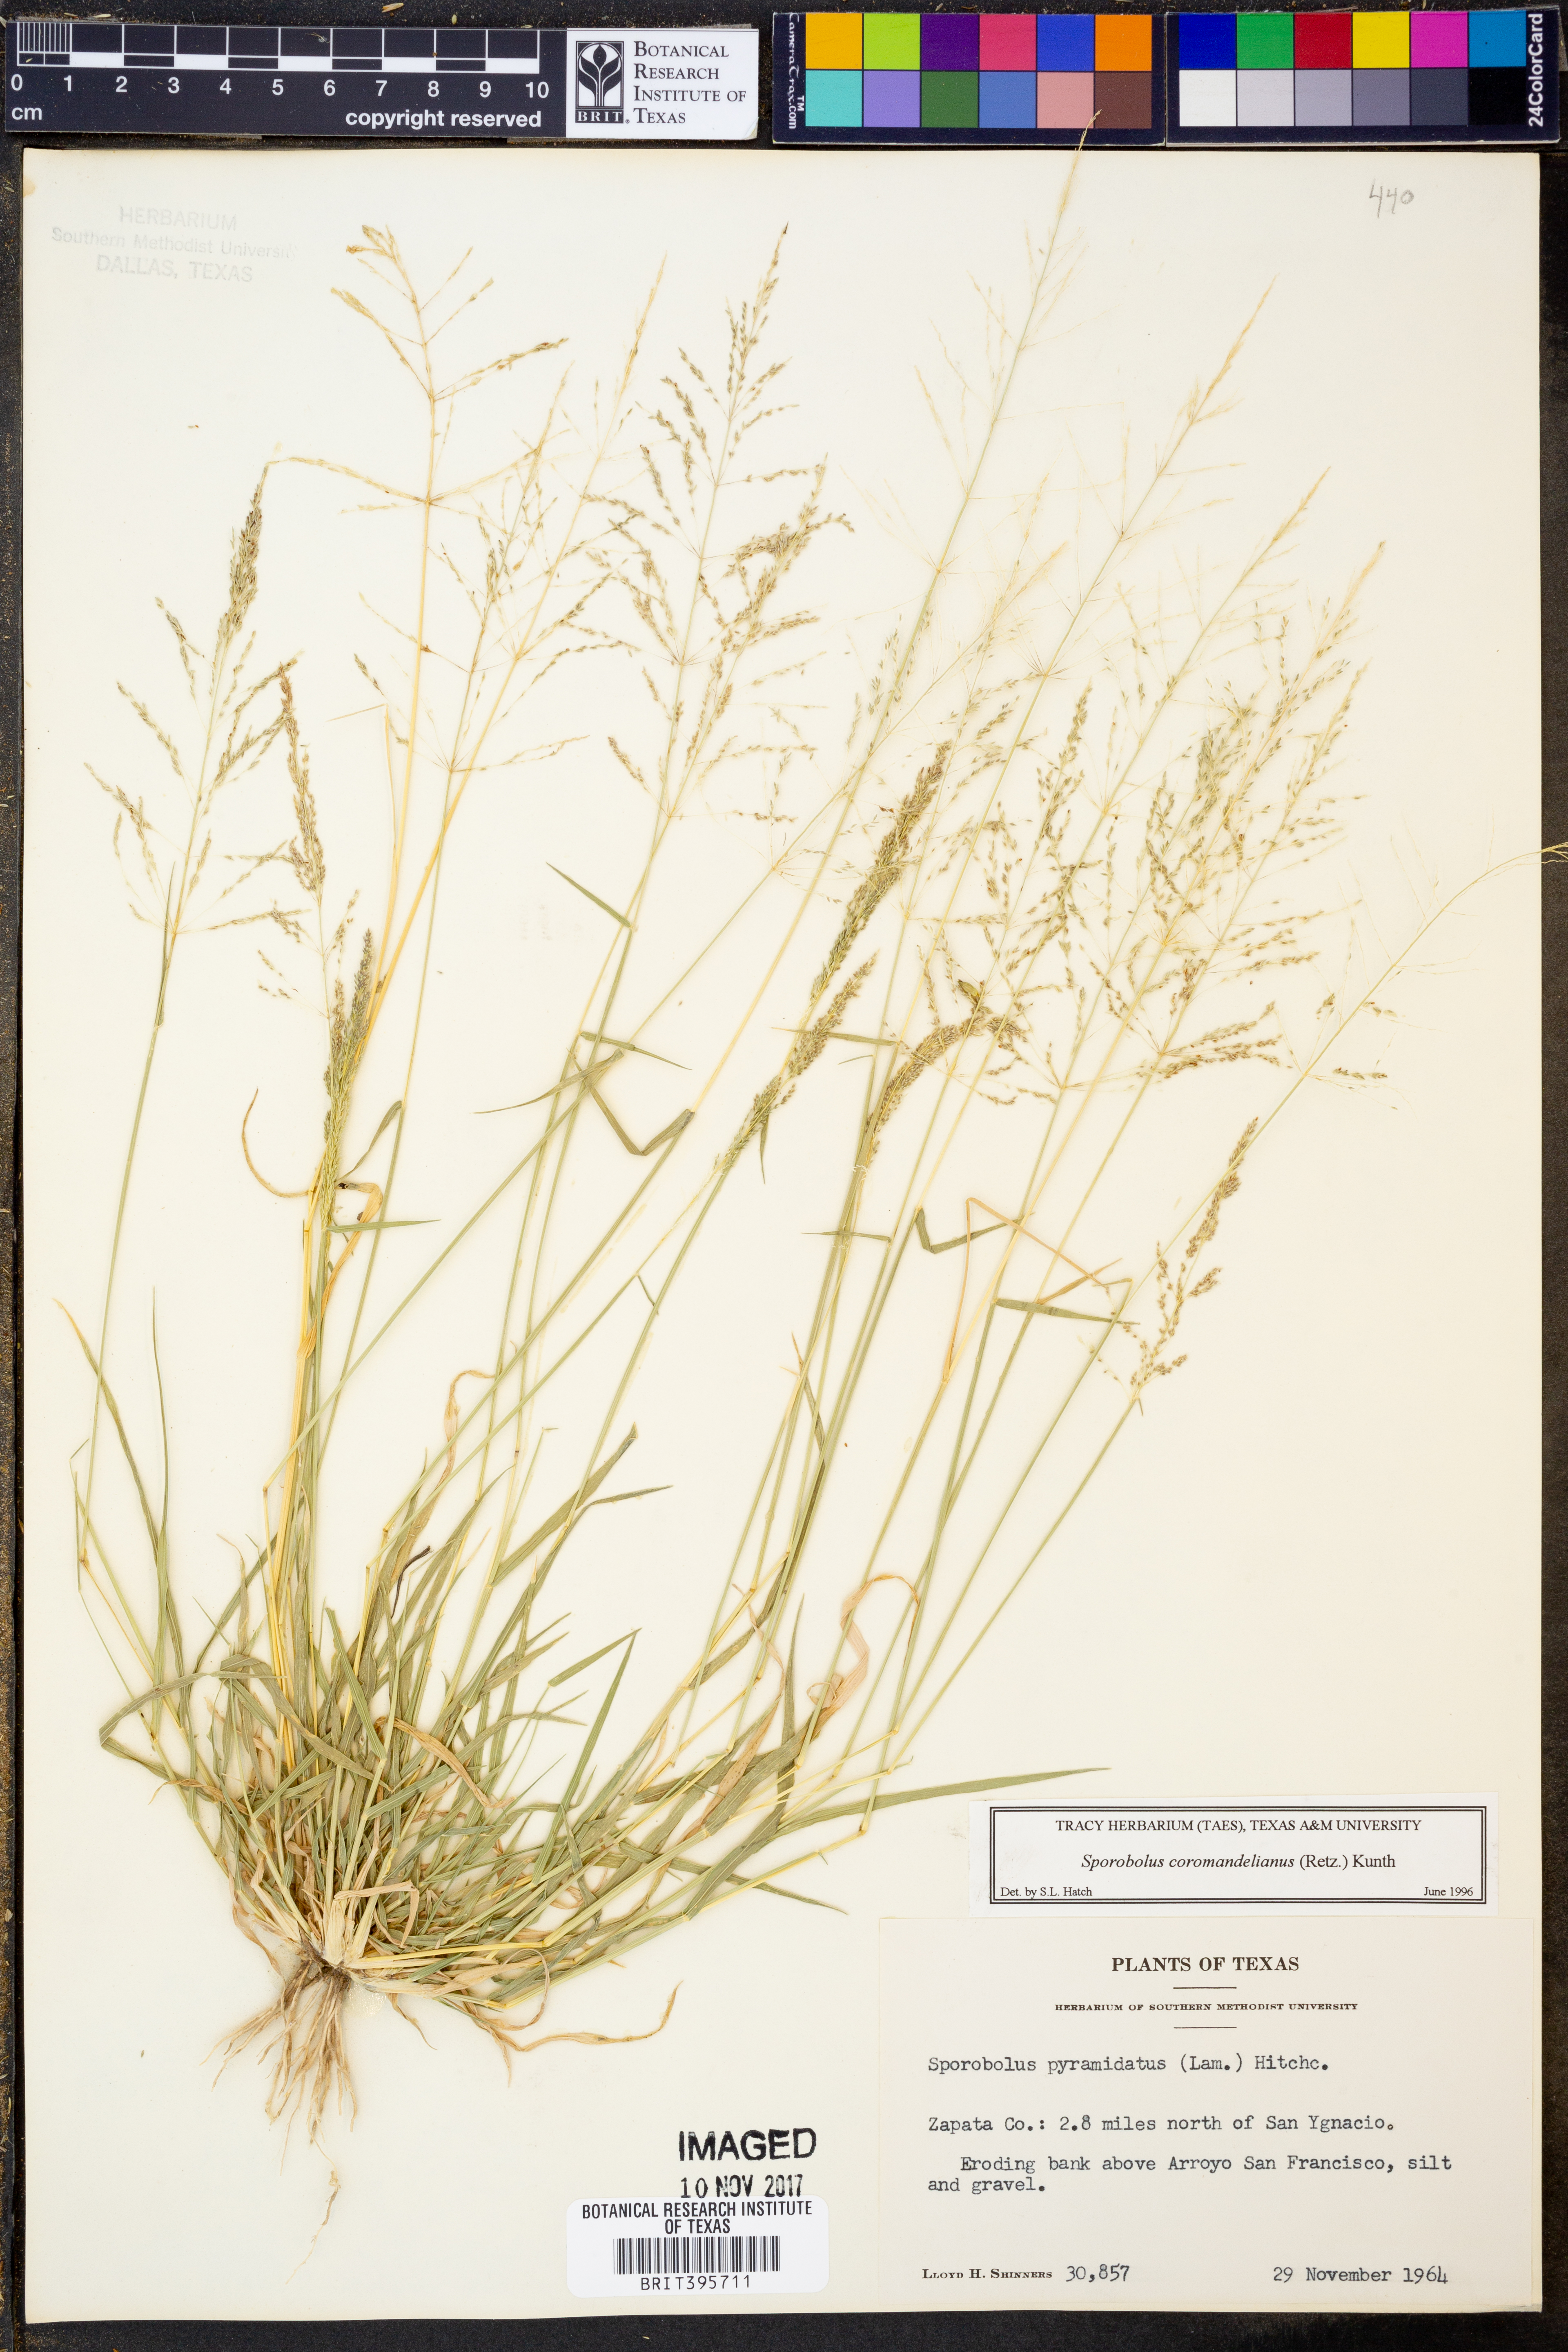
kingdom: Plantae
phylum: Tracheophyta
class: Liliopsida
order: Poales
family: Poaceae
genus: Sporobolus
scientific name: Sporobolus coromandelianus
